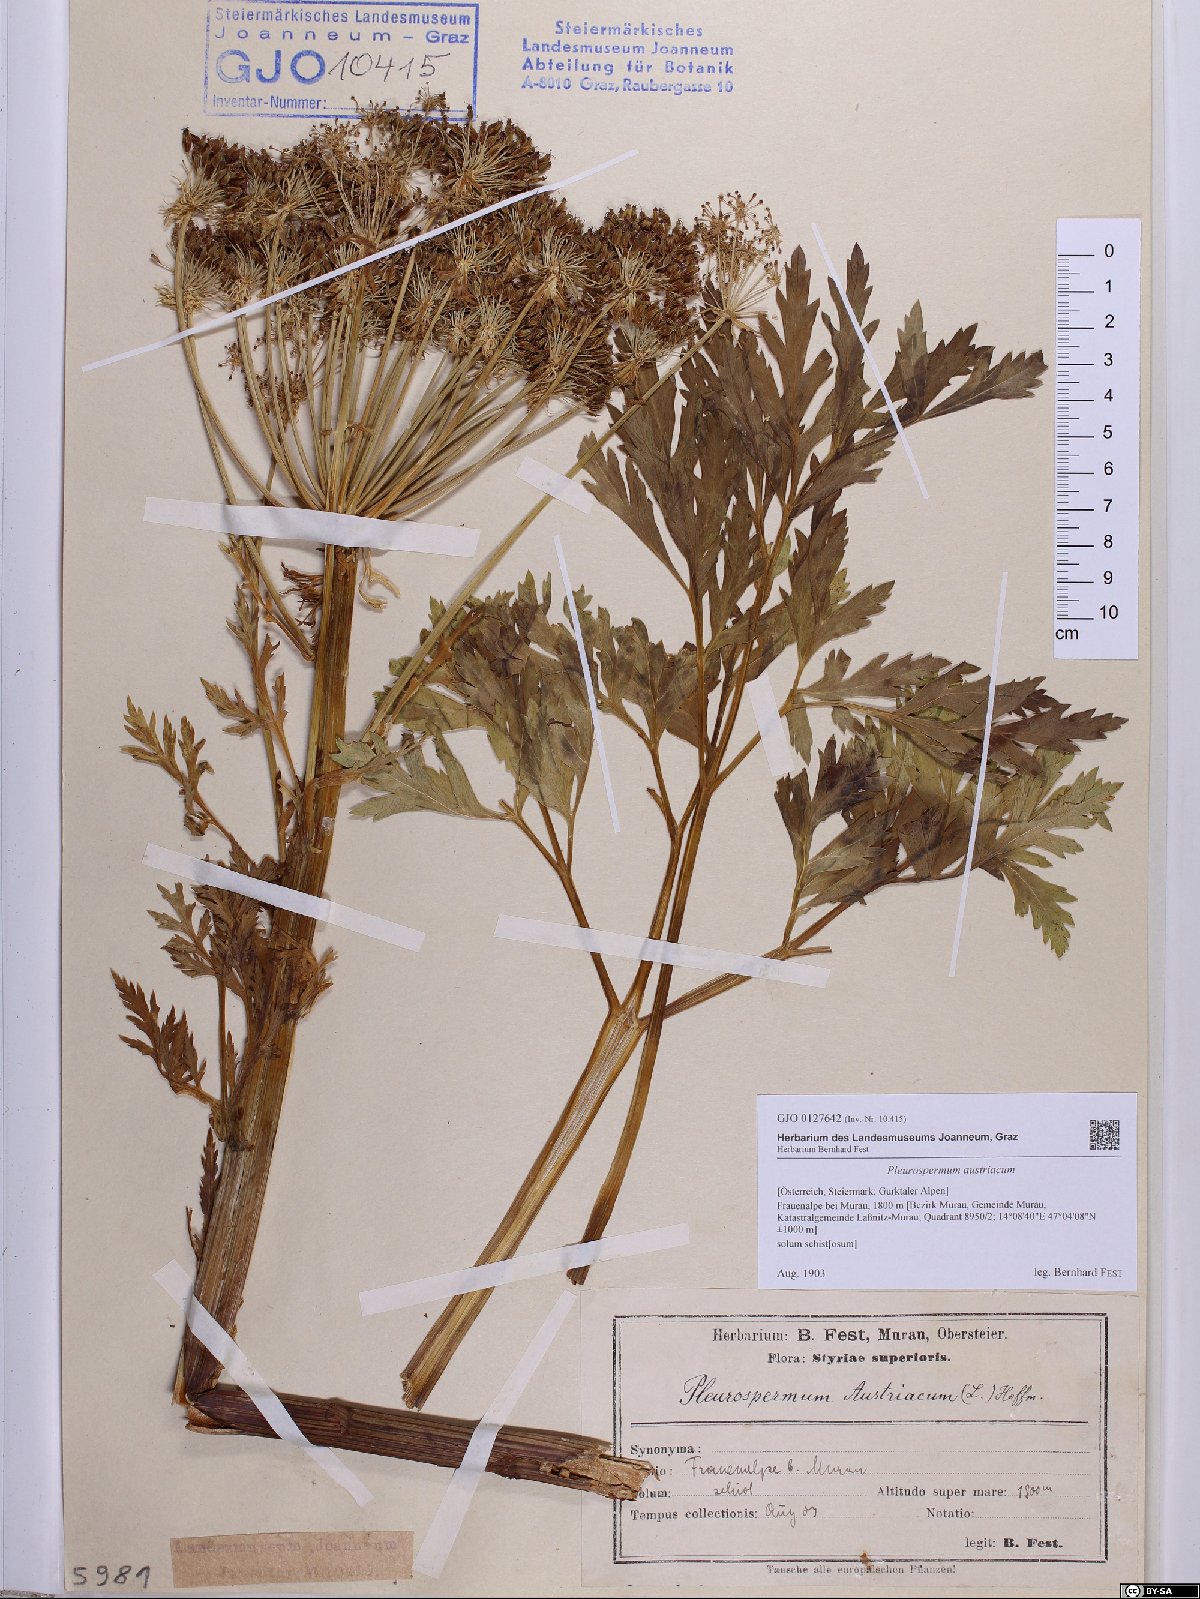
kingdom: Plantae
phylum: Tracheophyta
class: Magnoliopsida
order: Apiales
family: Apiaceae
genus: Pleurospermum
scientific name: Pleurospermum austriacum
